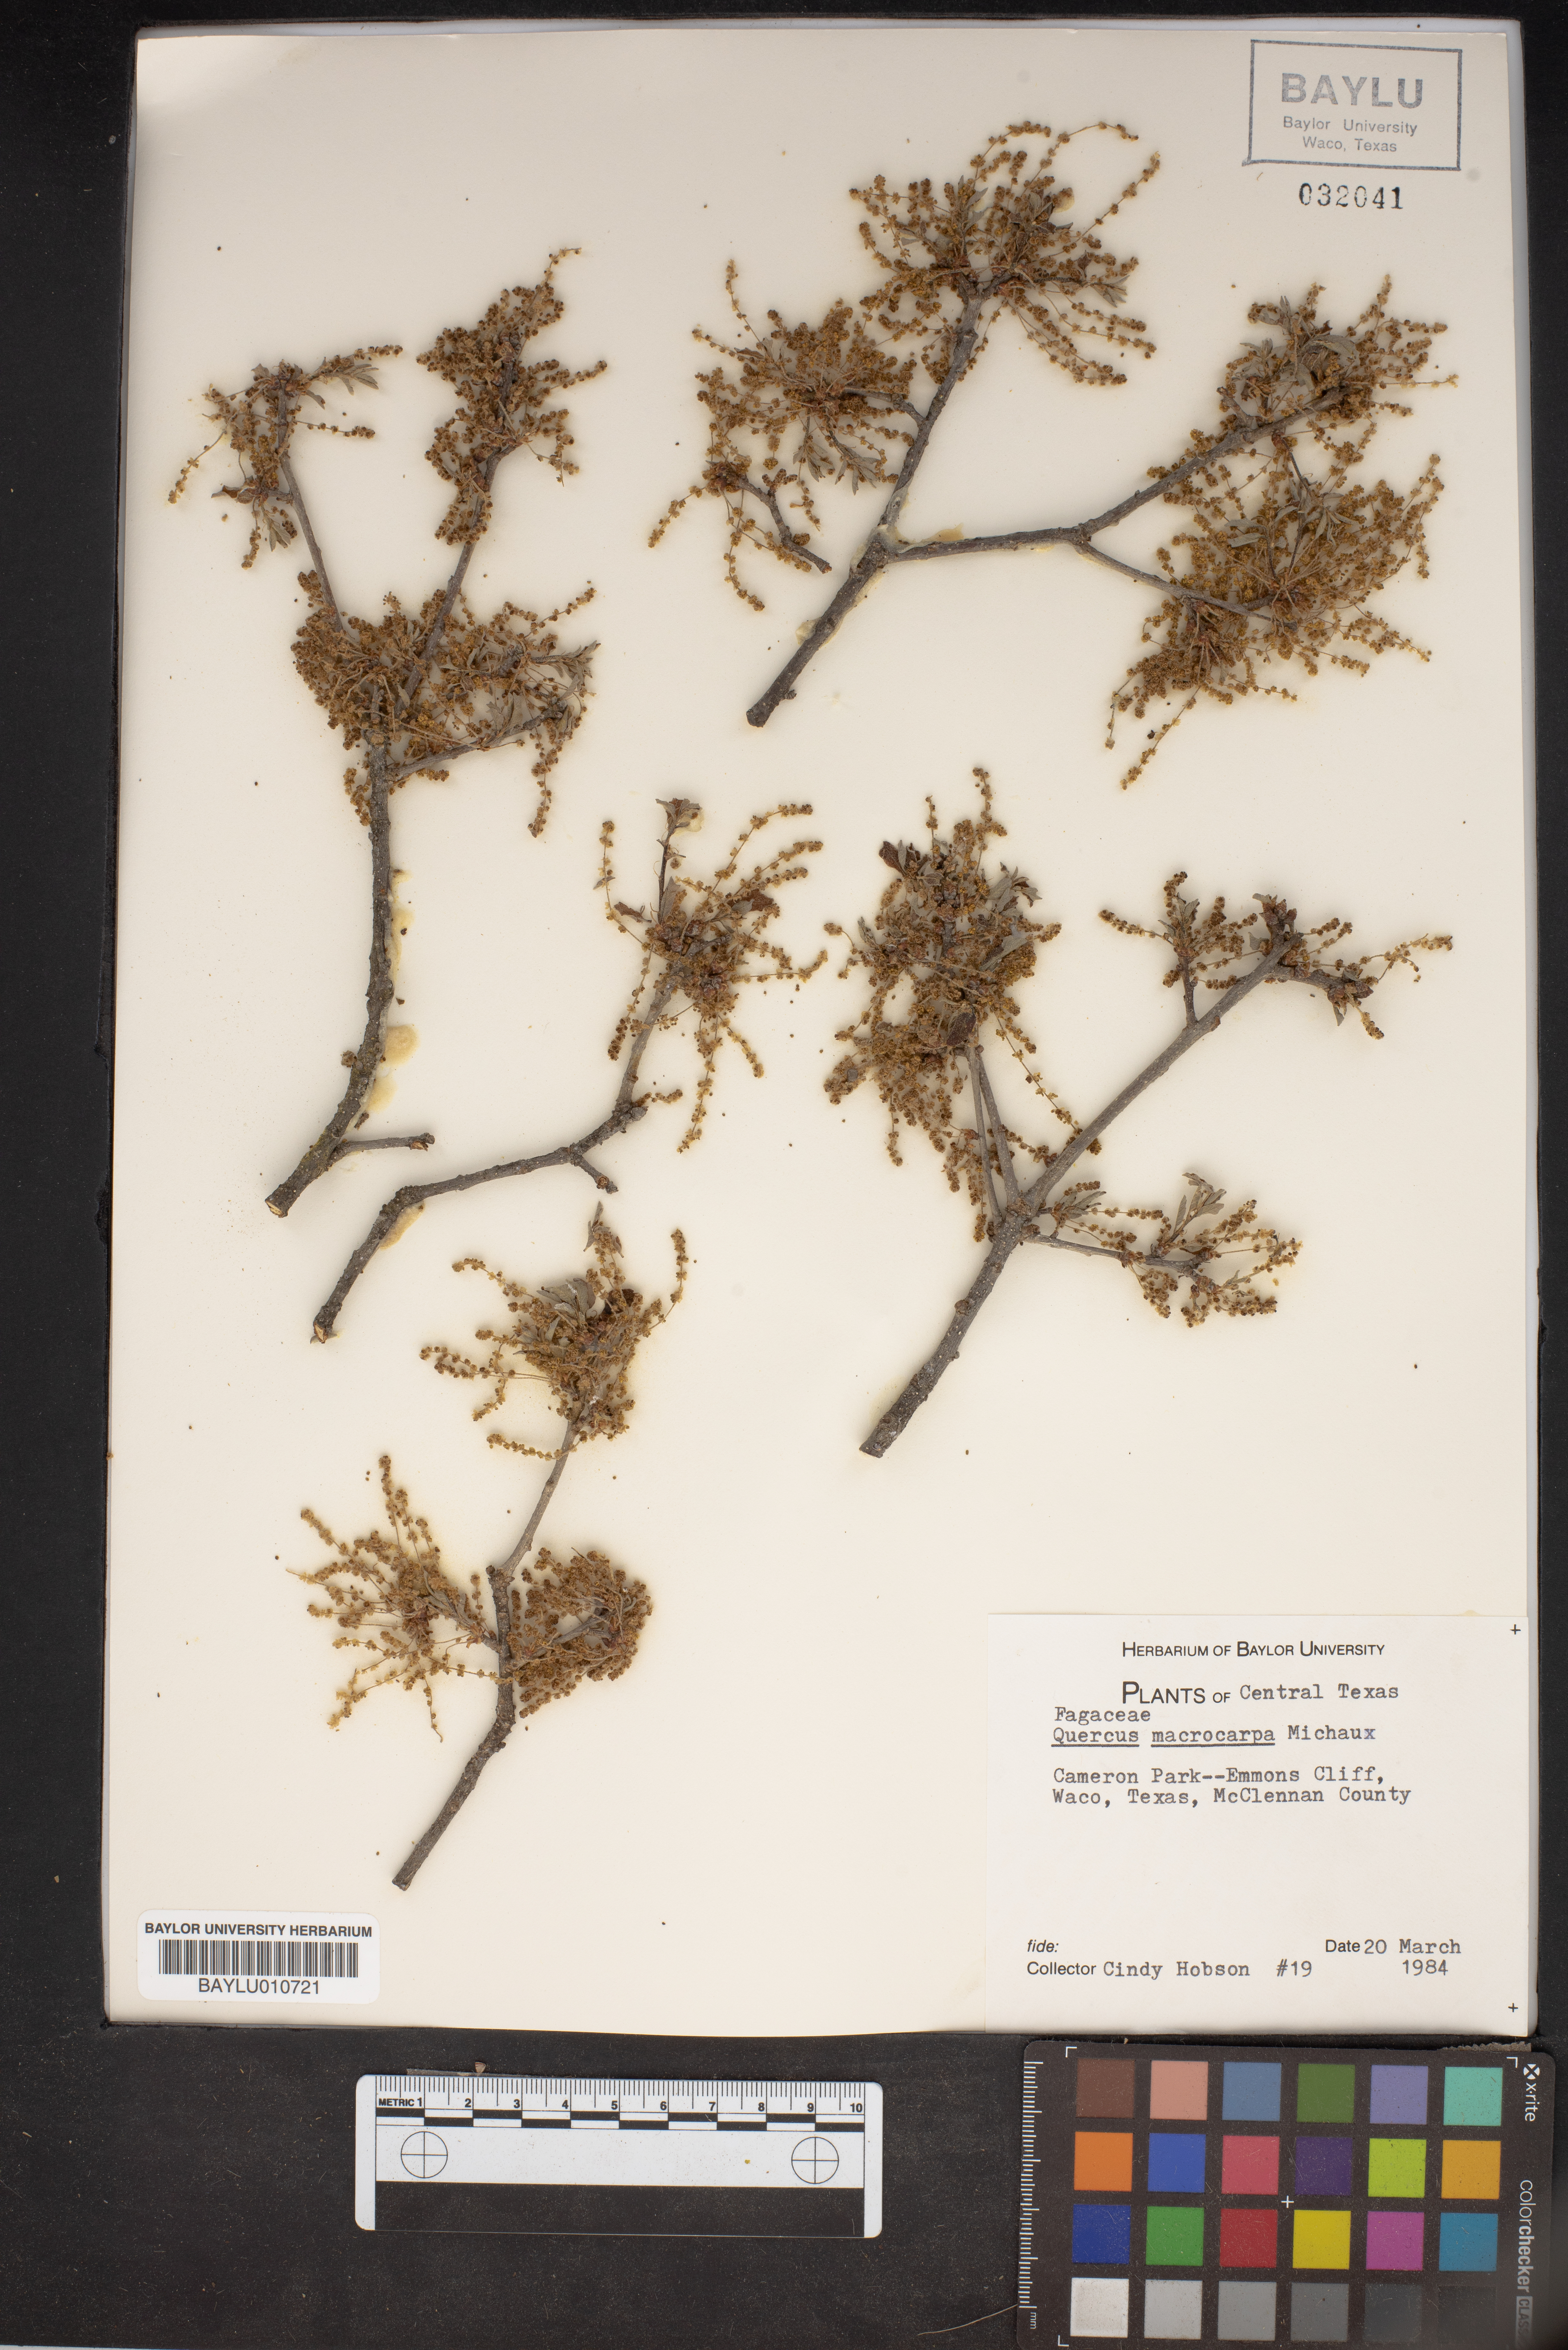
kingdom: Plantae
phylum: Tracheophyta
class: Magnoliopsida
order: Fagales
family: Fagaceae
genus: Quercus
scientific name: Quercus macrocarpa
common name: Bur oak
